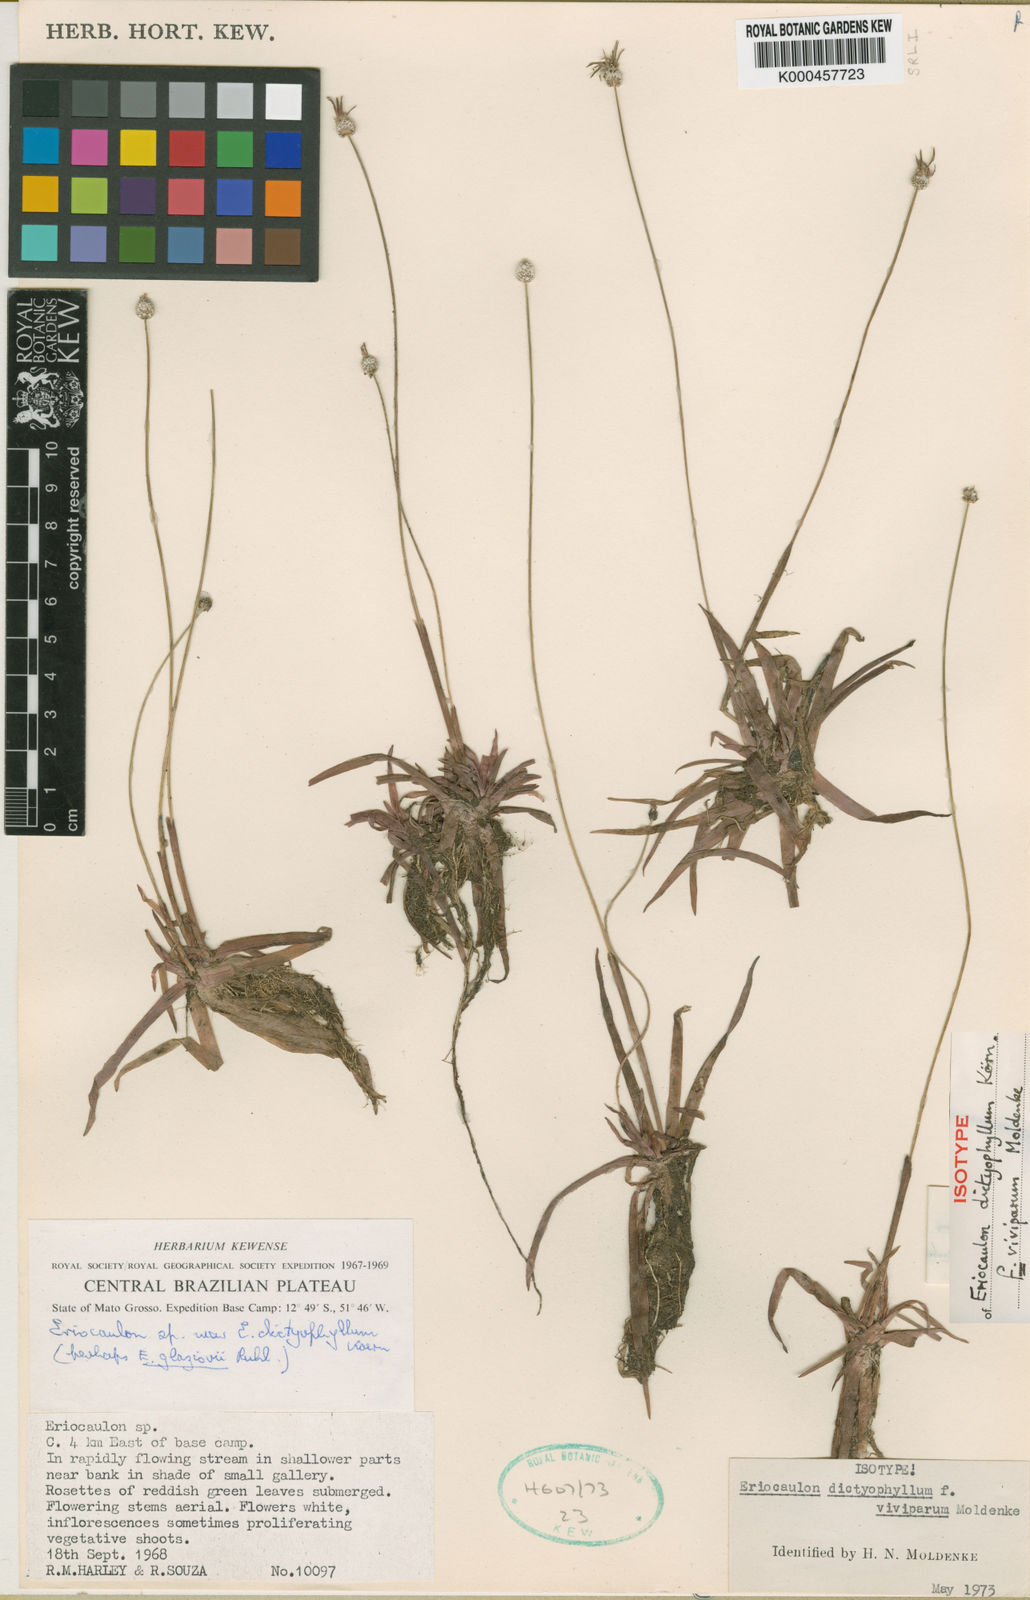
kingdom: Plantae
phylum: Tracheophyta
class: Liliopsida
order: Poales
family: Eriocaulaceae
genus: Eriocaulon
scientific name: Eriocaulon
